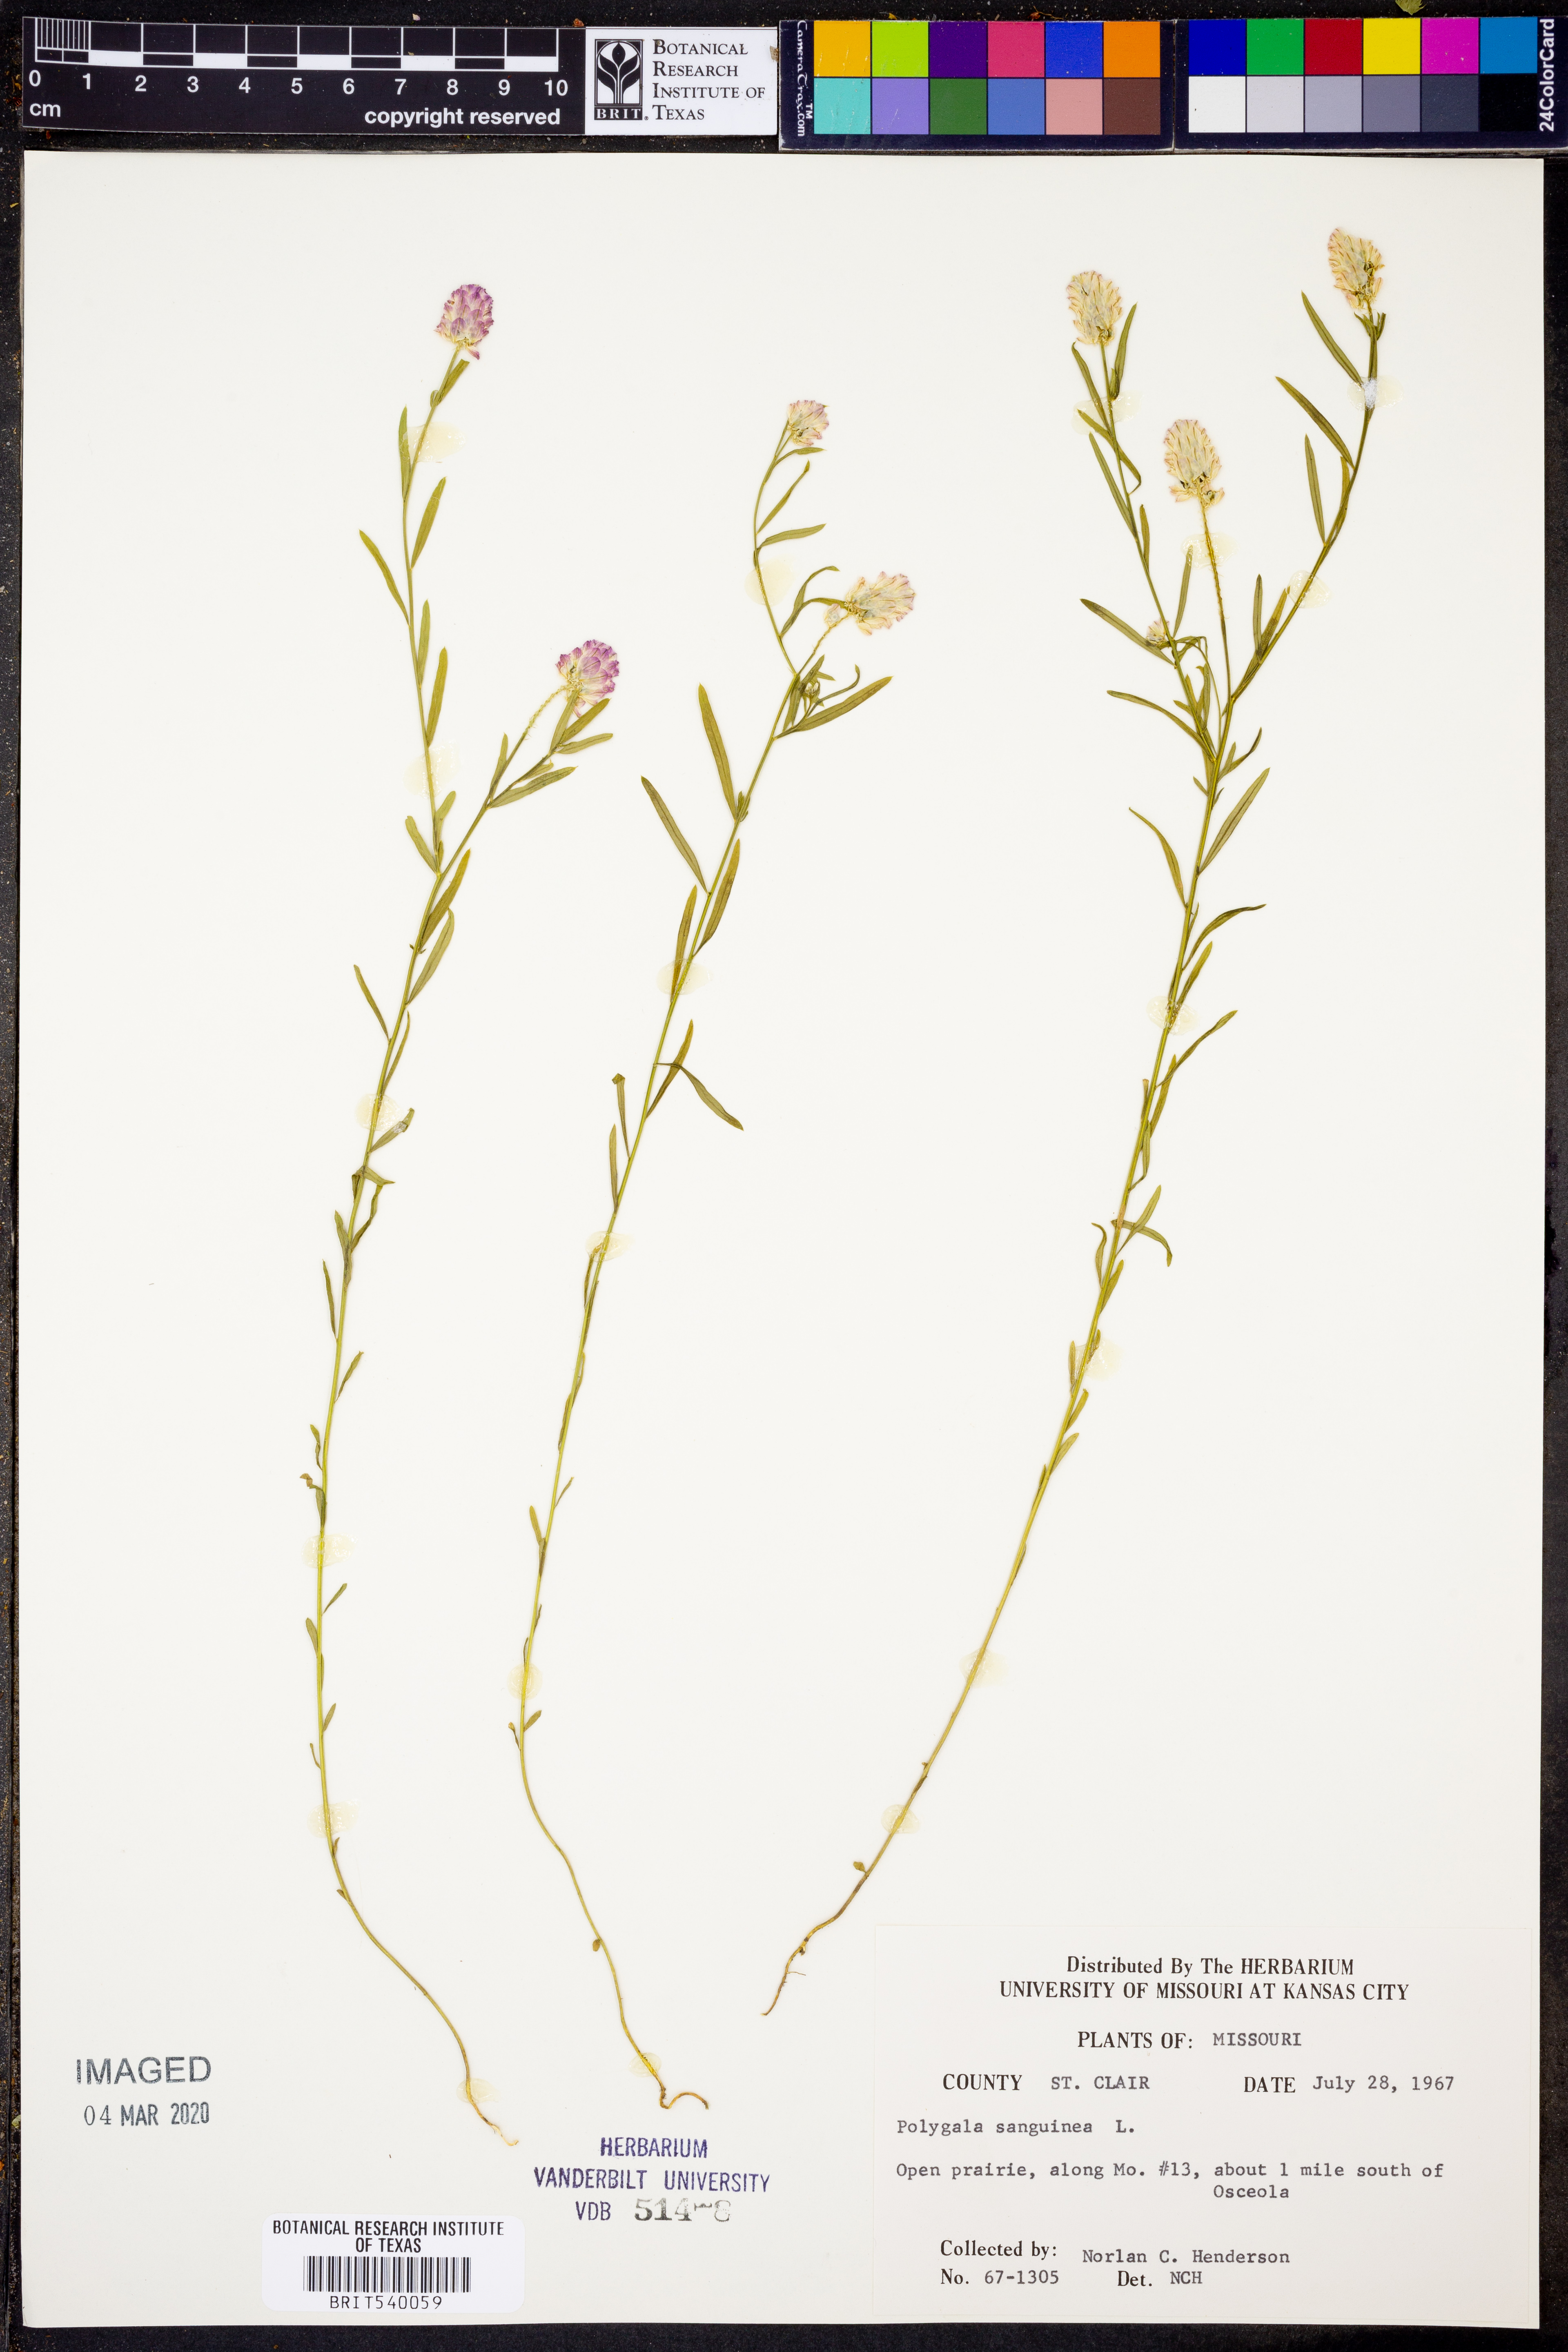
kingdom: Plantae
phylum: Tracheophyta
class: Magnoliopsida
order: Fabales
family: Polygalaceae
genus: Polygala
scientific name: Polygala sanguinea
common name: Blood milkwort
